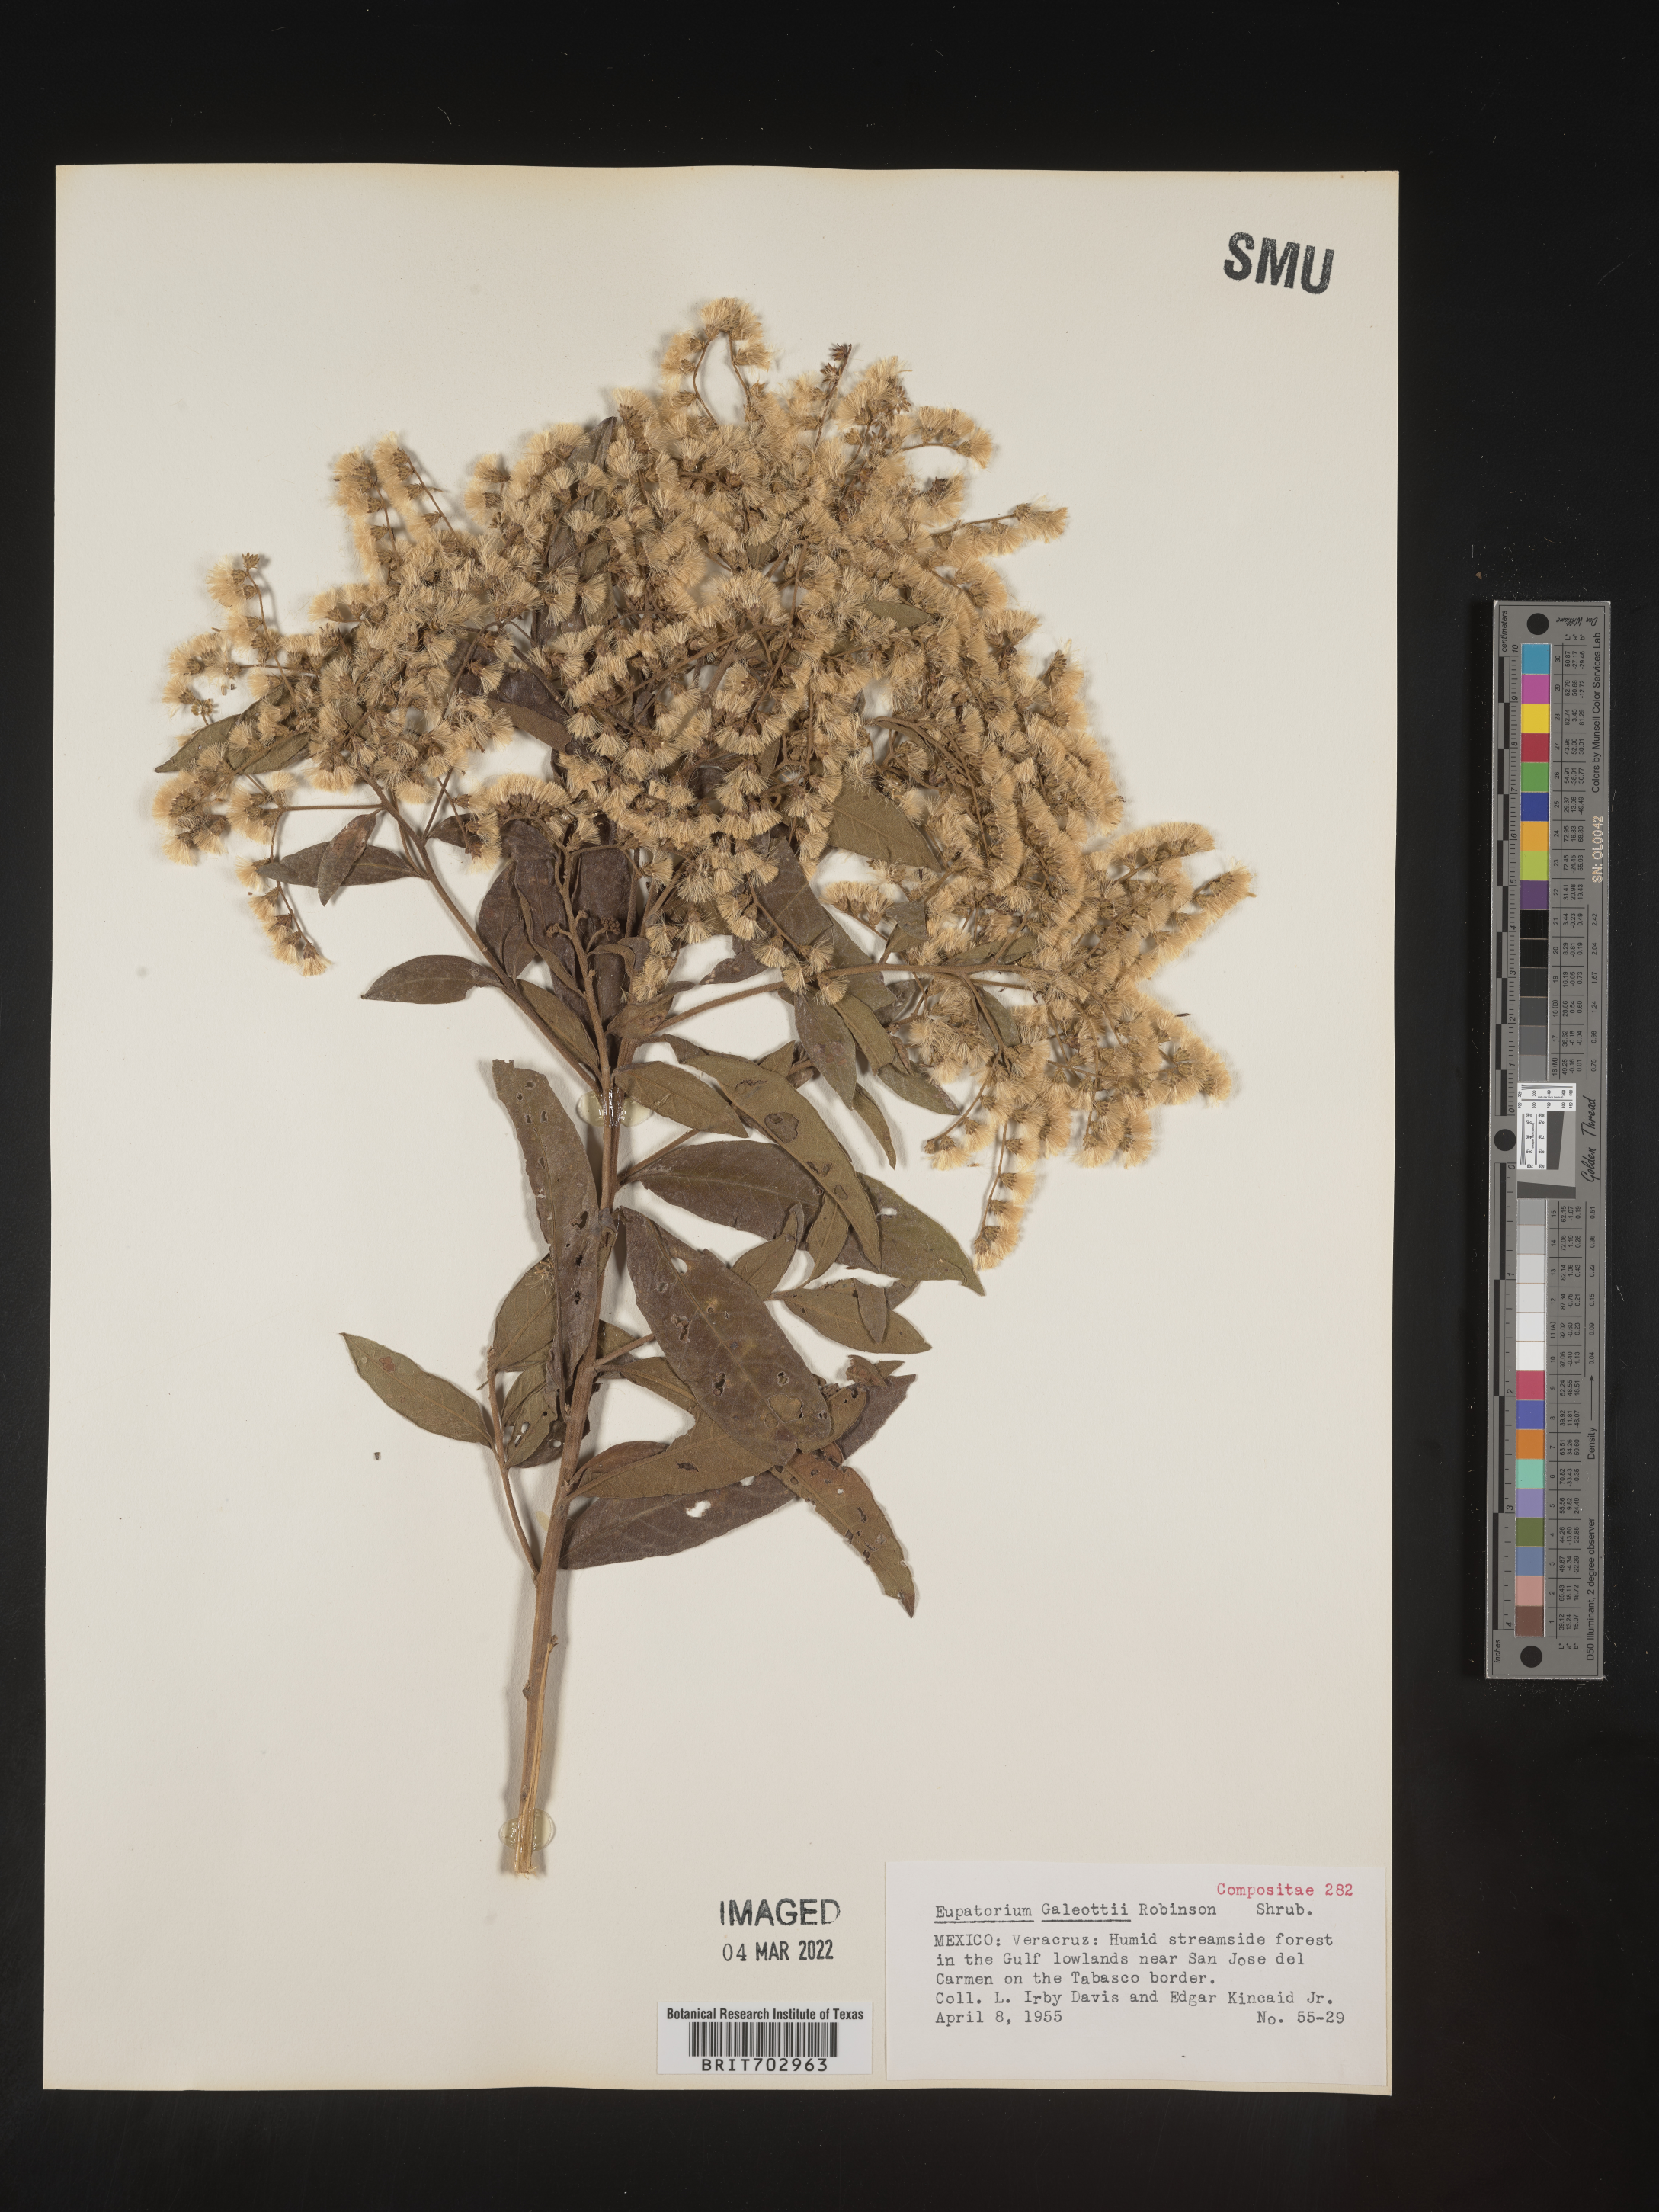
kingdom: Plantae
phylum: Tracheophyta
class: Magnoliopsida
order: Asterales
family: Asteraceae
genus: Eupatorium
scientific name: Eupatorium
